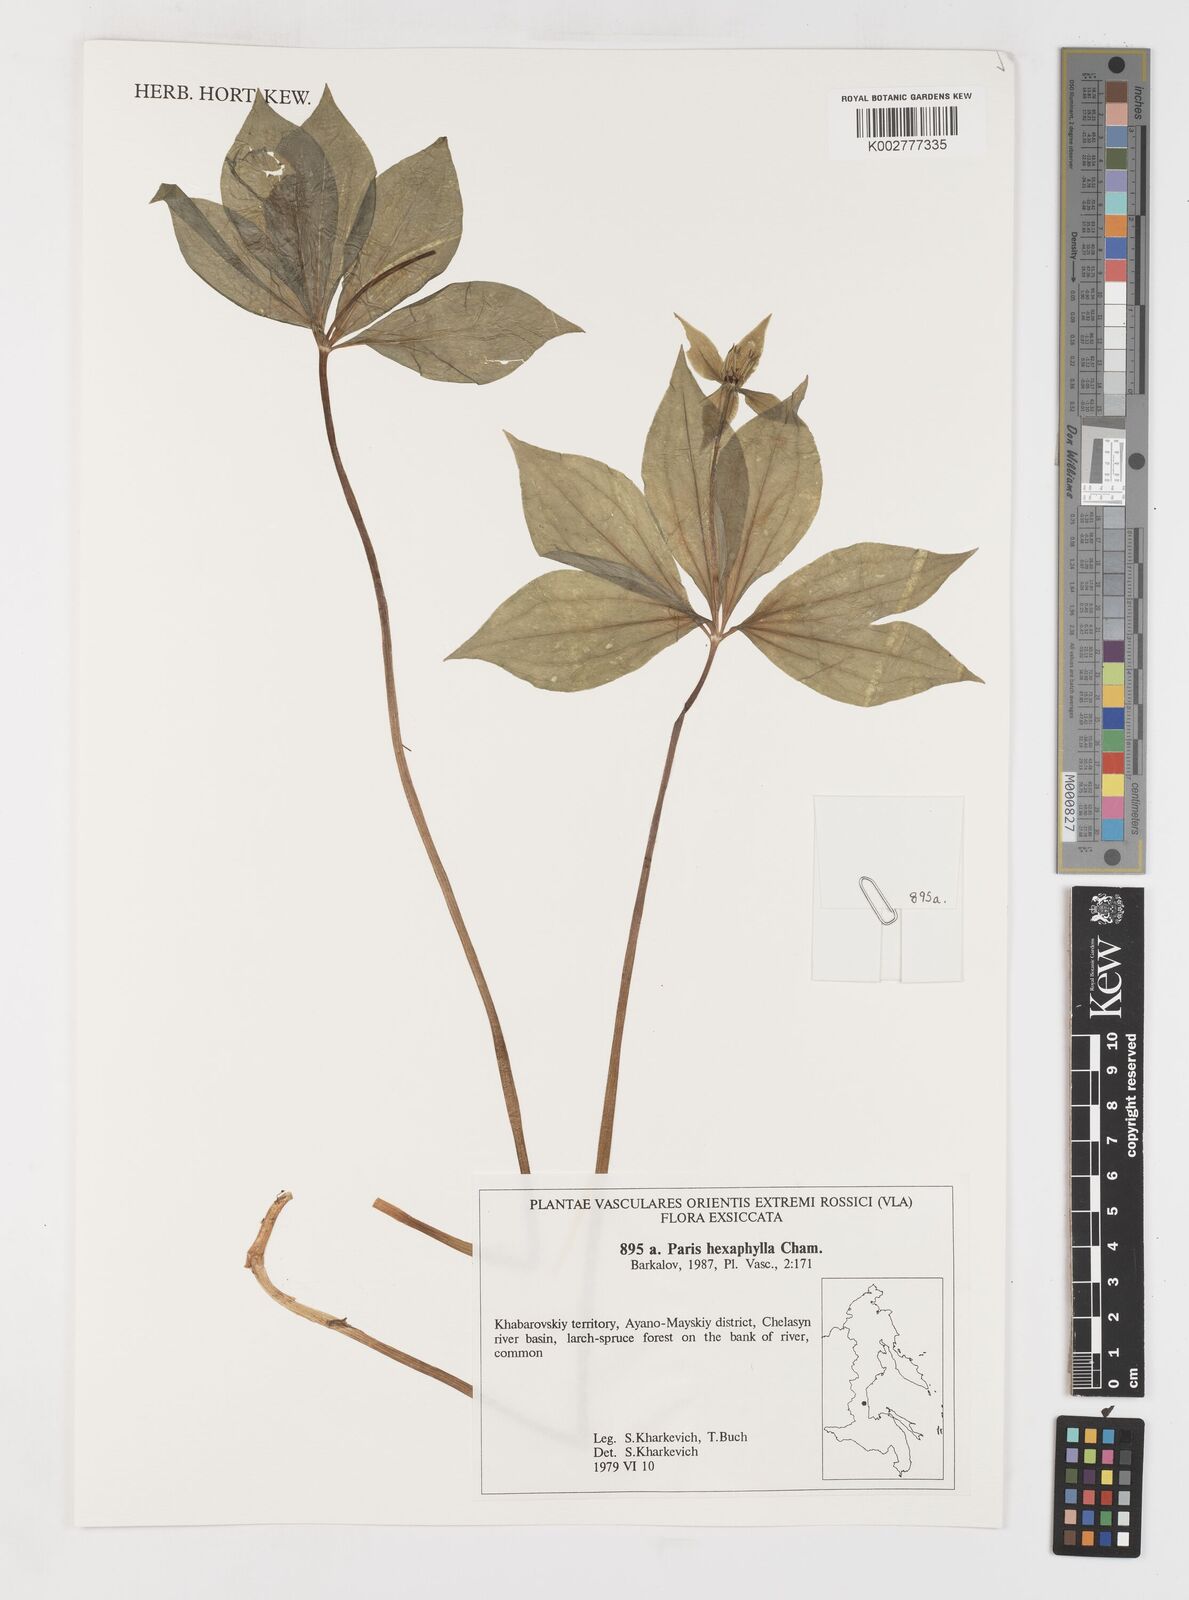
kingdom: Plantae
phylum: Tracheophyta
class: Liliopsida
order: Liliales
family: Melanthiaceae
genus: Paris
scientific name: Paris verticillata
